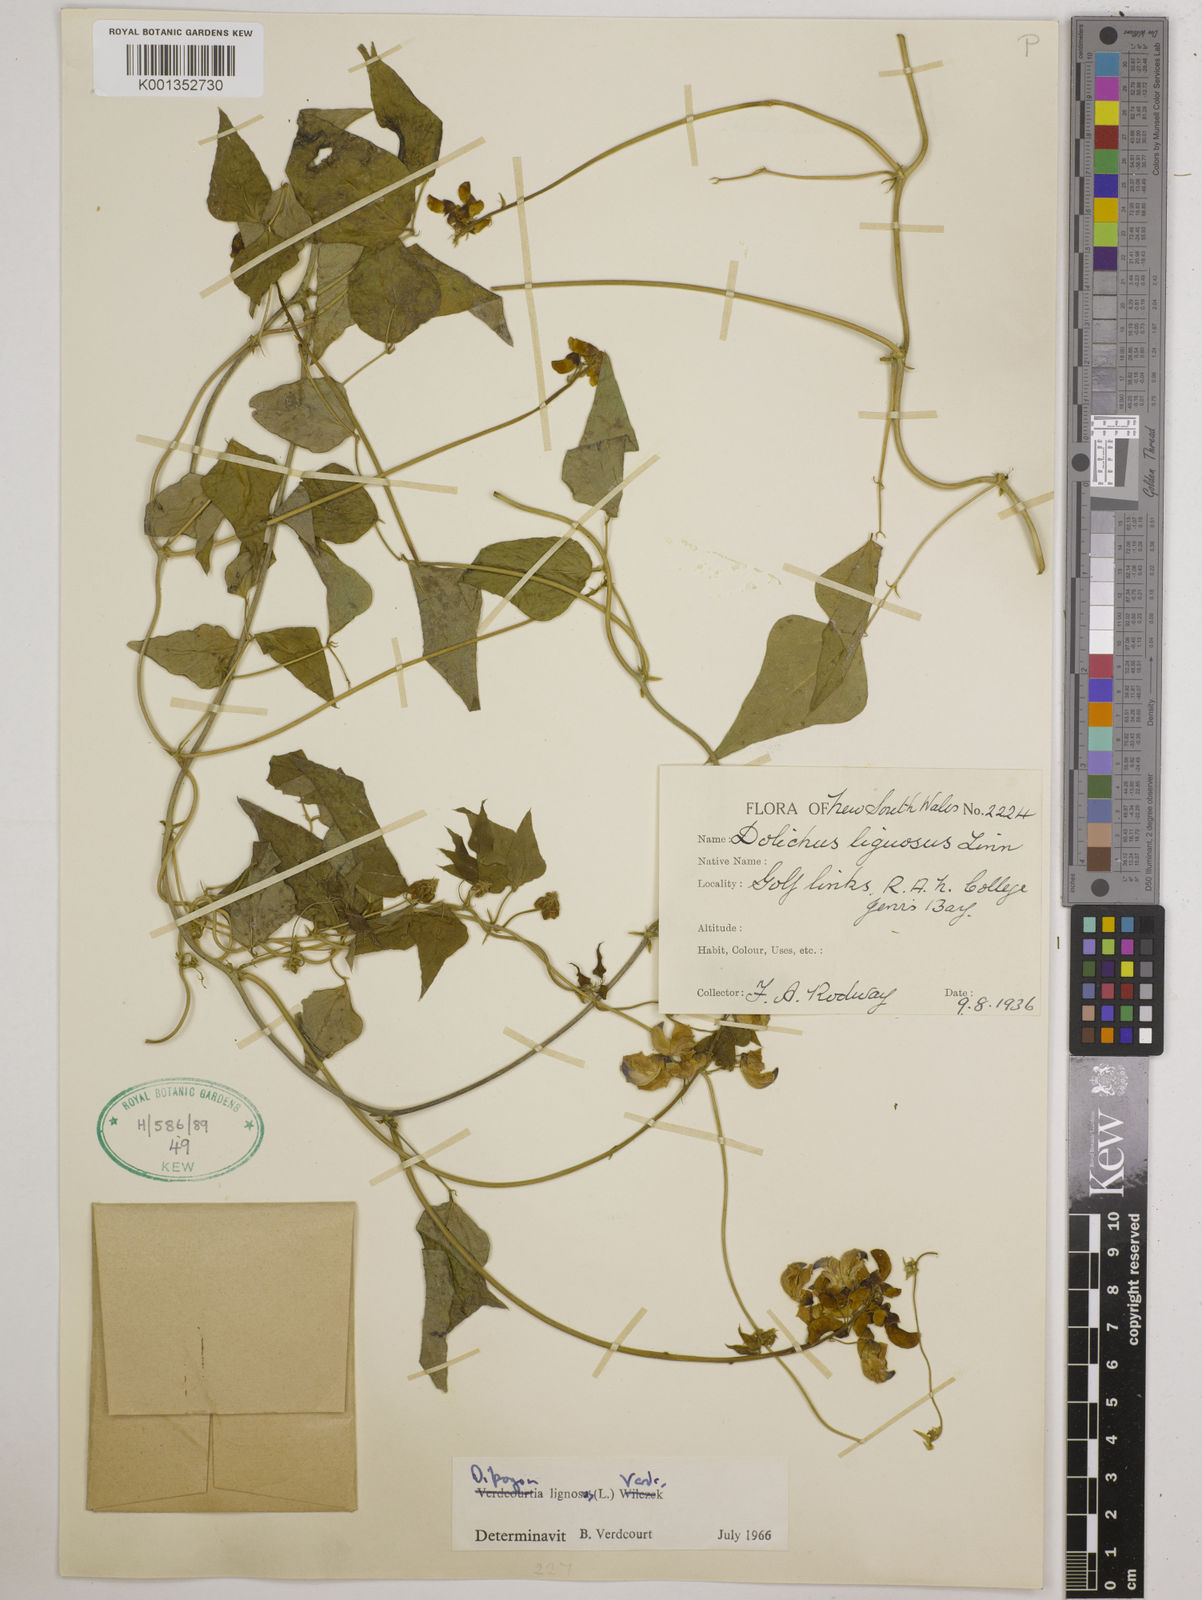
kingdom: Plantae
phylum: Tracheophyta
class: Magnoliopsida
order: Fabales
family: Fabaceae
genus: Dipogon
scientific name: Dipogon lignosus
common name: Okie bean
